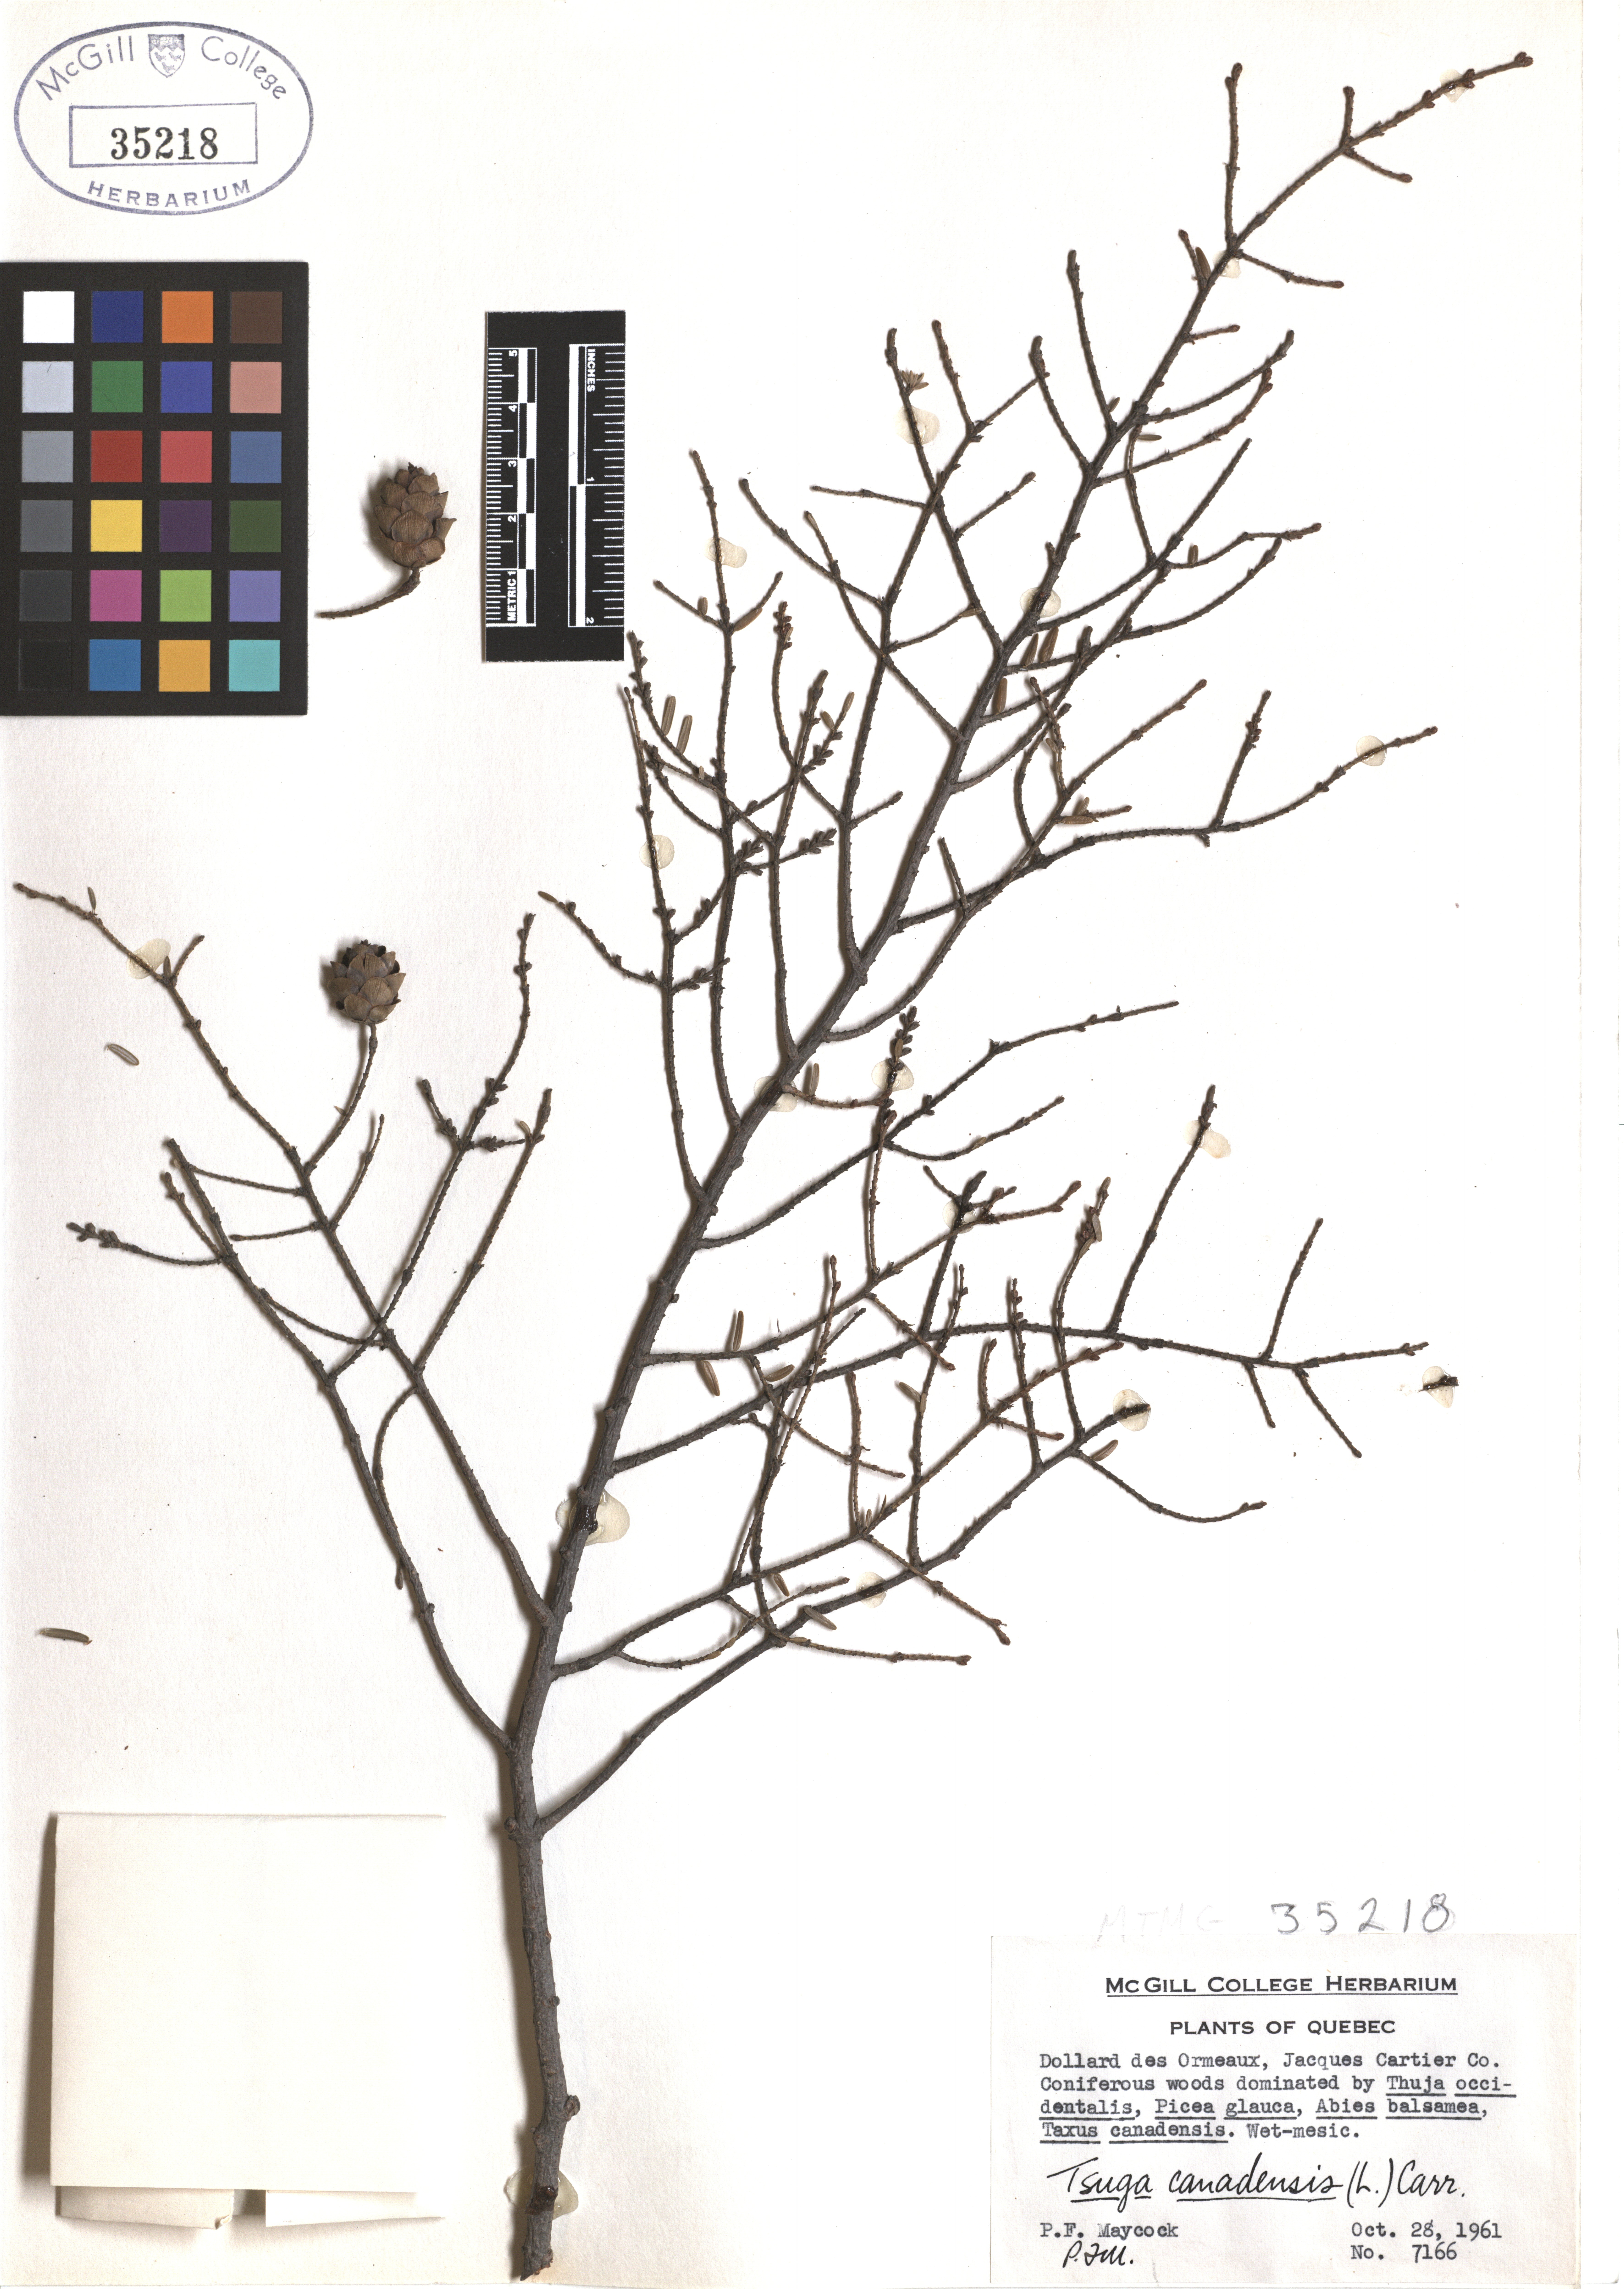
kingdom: Plantae
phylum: Tracheophyta
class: Pinopsida
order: Pinales
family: Pinaceae
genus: Tsuga
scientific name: Tsuga canadensis
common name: Eastern hemlock
